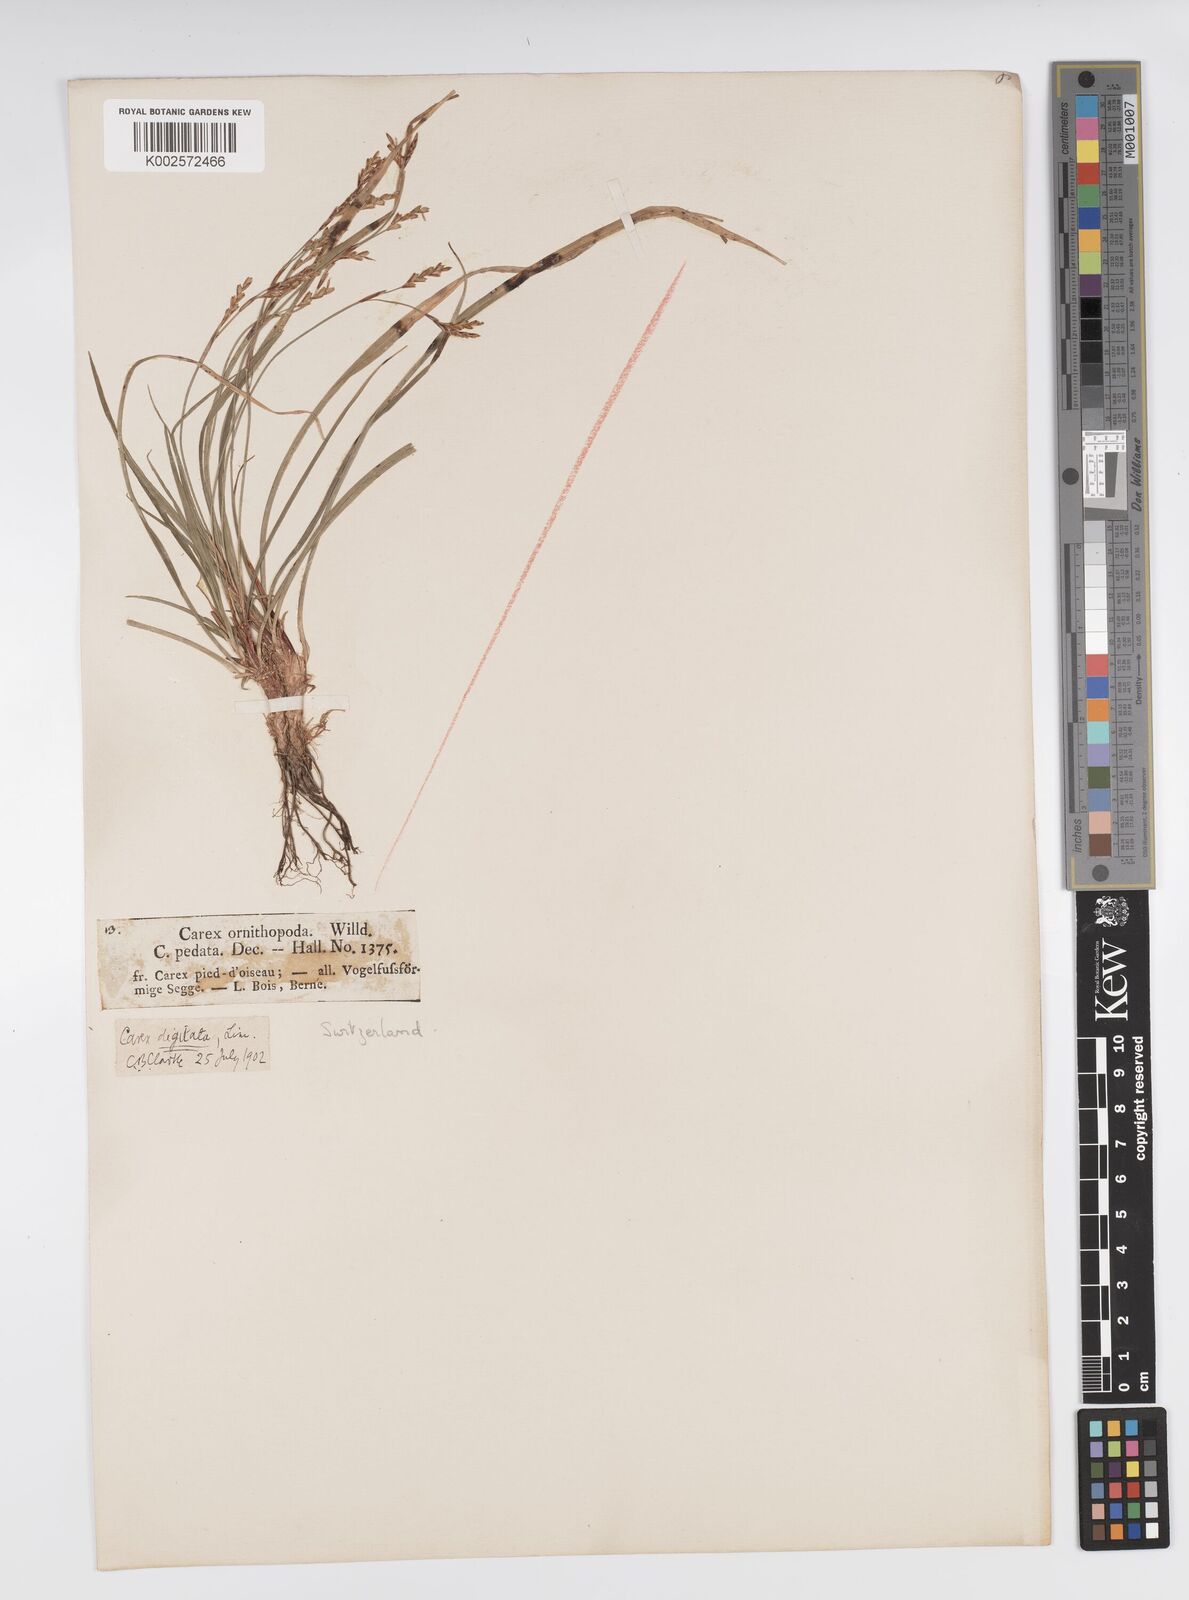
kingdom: Plantae
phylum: Tracheophyta
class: Liliopsida
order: Poales
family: Cyperaceae
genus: Carex
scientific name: Carex digitata
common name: Fingered sedge
